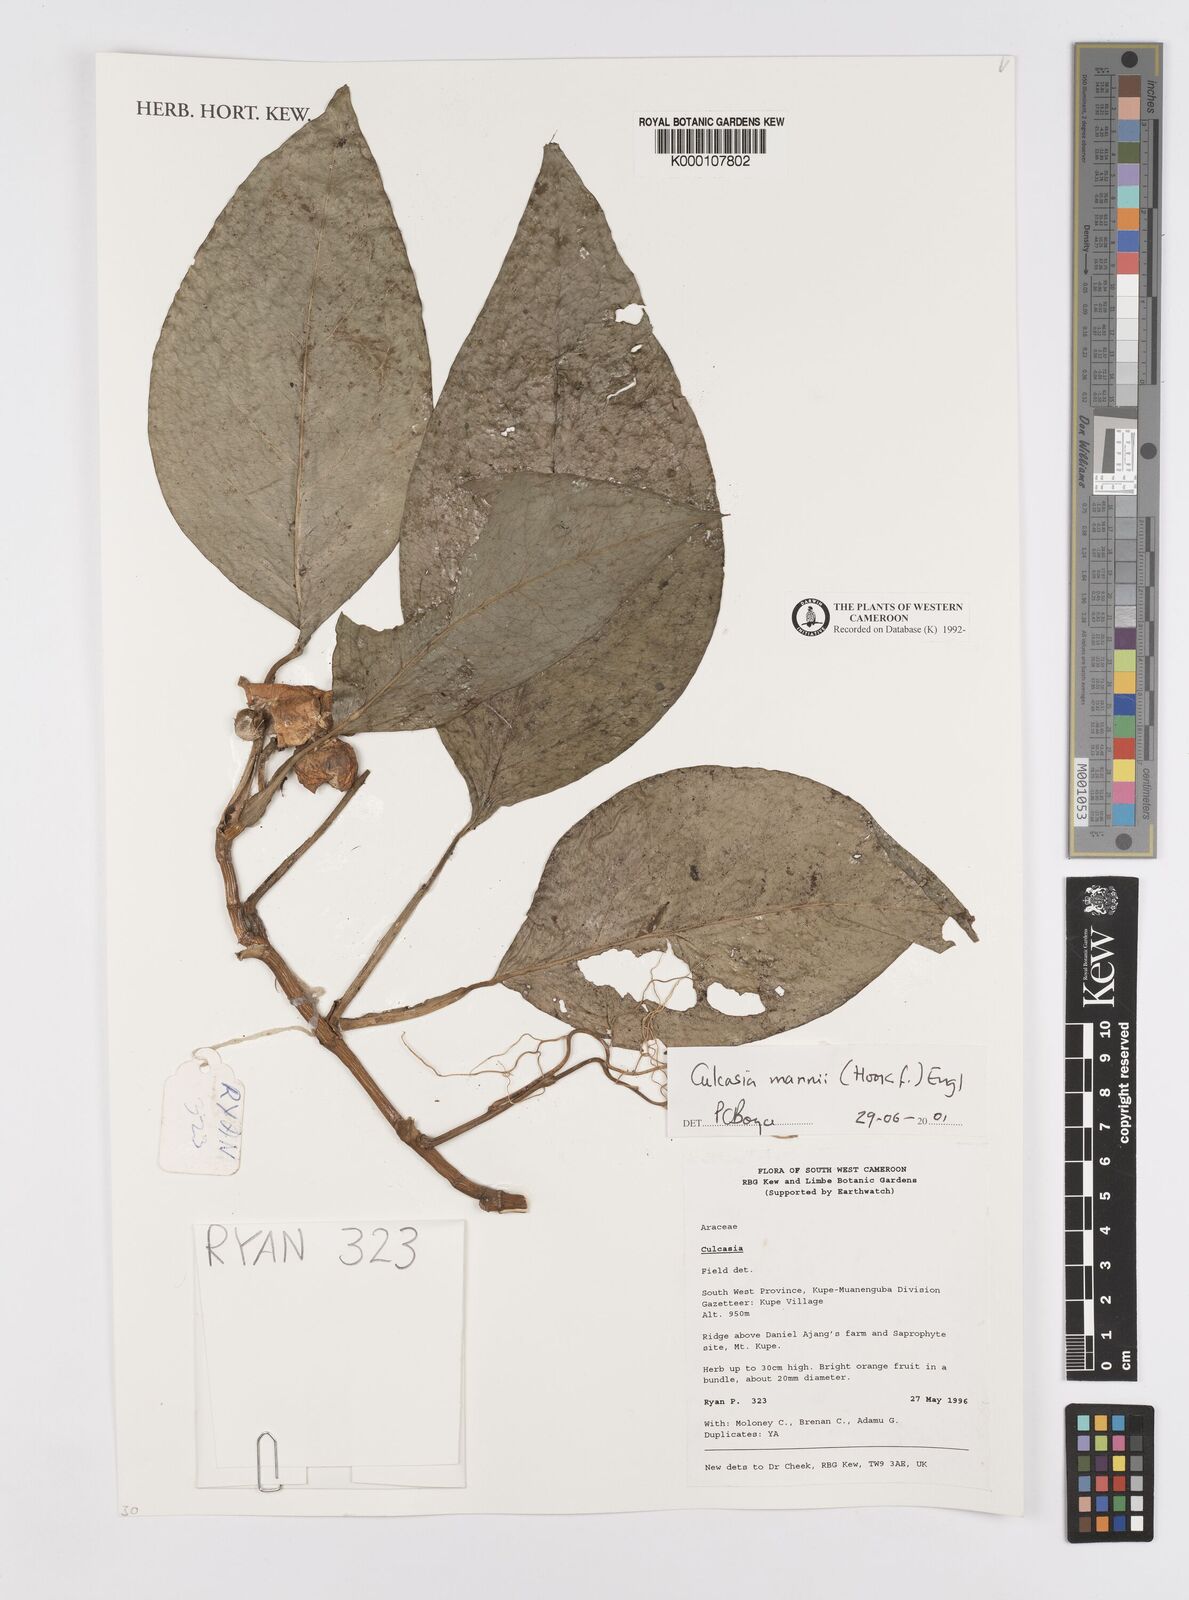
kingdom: Plantae
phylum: Tracheophyta
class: Liliopsida
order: Alismatales
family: Araceae
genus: Culcasia
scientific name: Culcasia mannii
